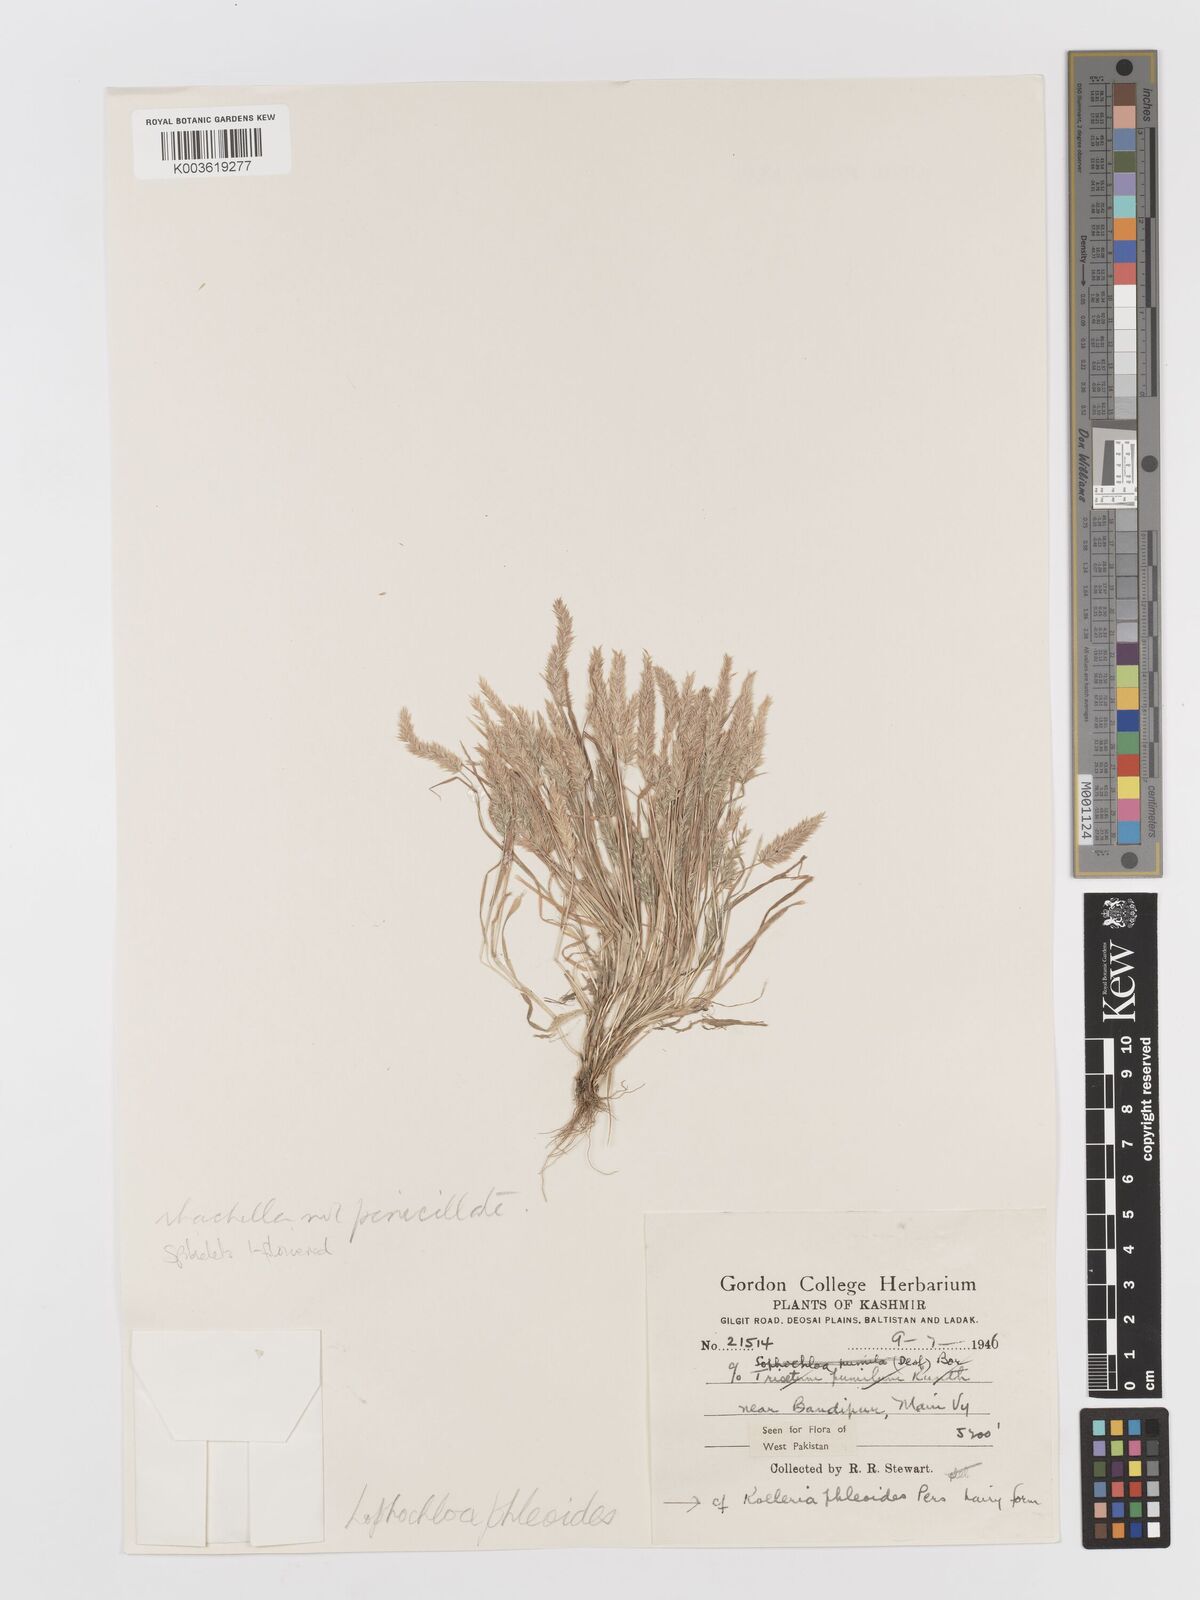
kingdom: Plantae
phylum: Tracheophyta
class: Liliopsida
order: Poales
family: Poaceae
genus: Rostraria
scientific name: Rostraria cristata
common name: Mediterranean hair-grass
